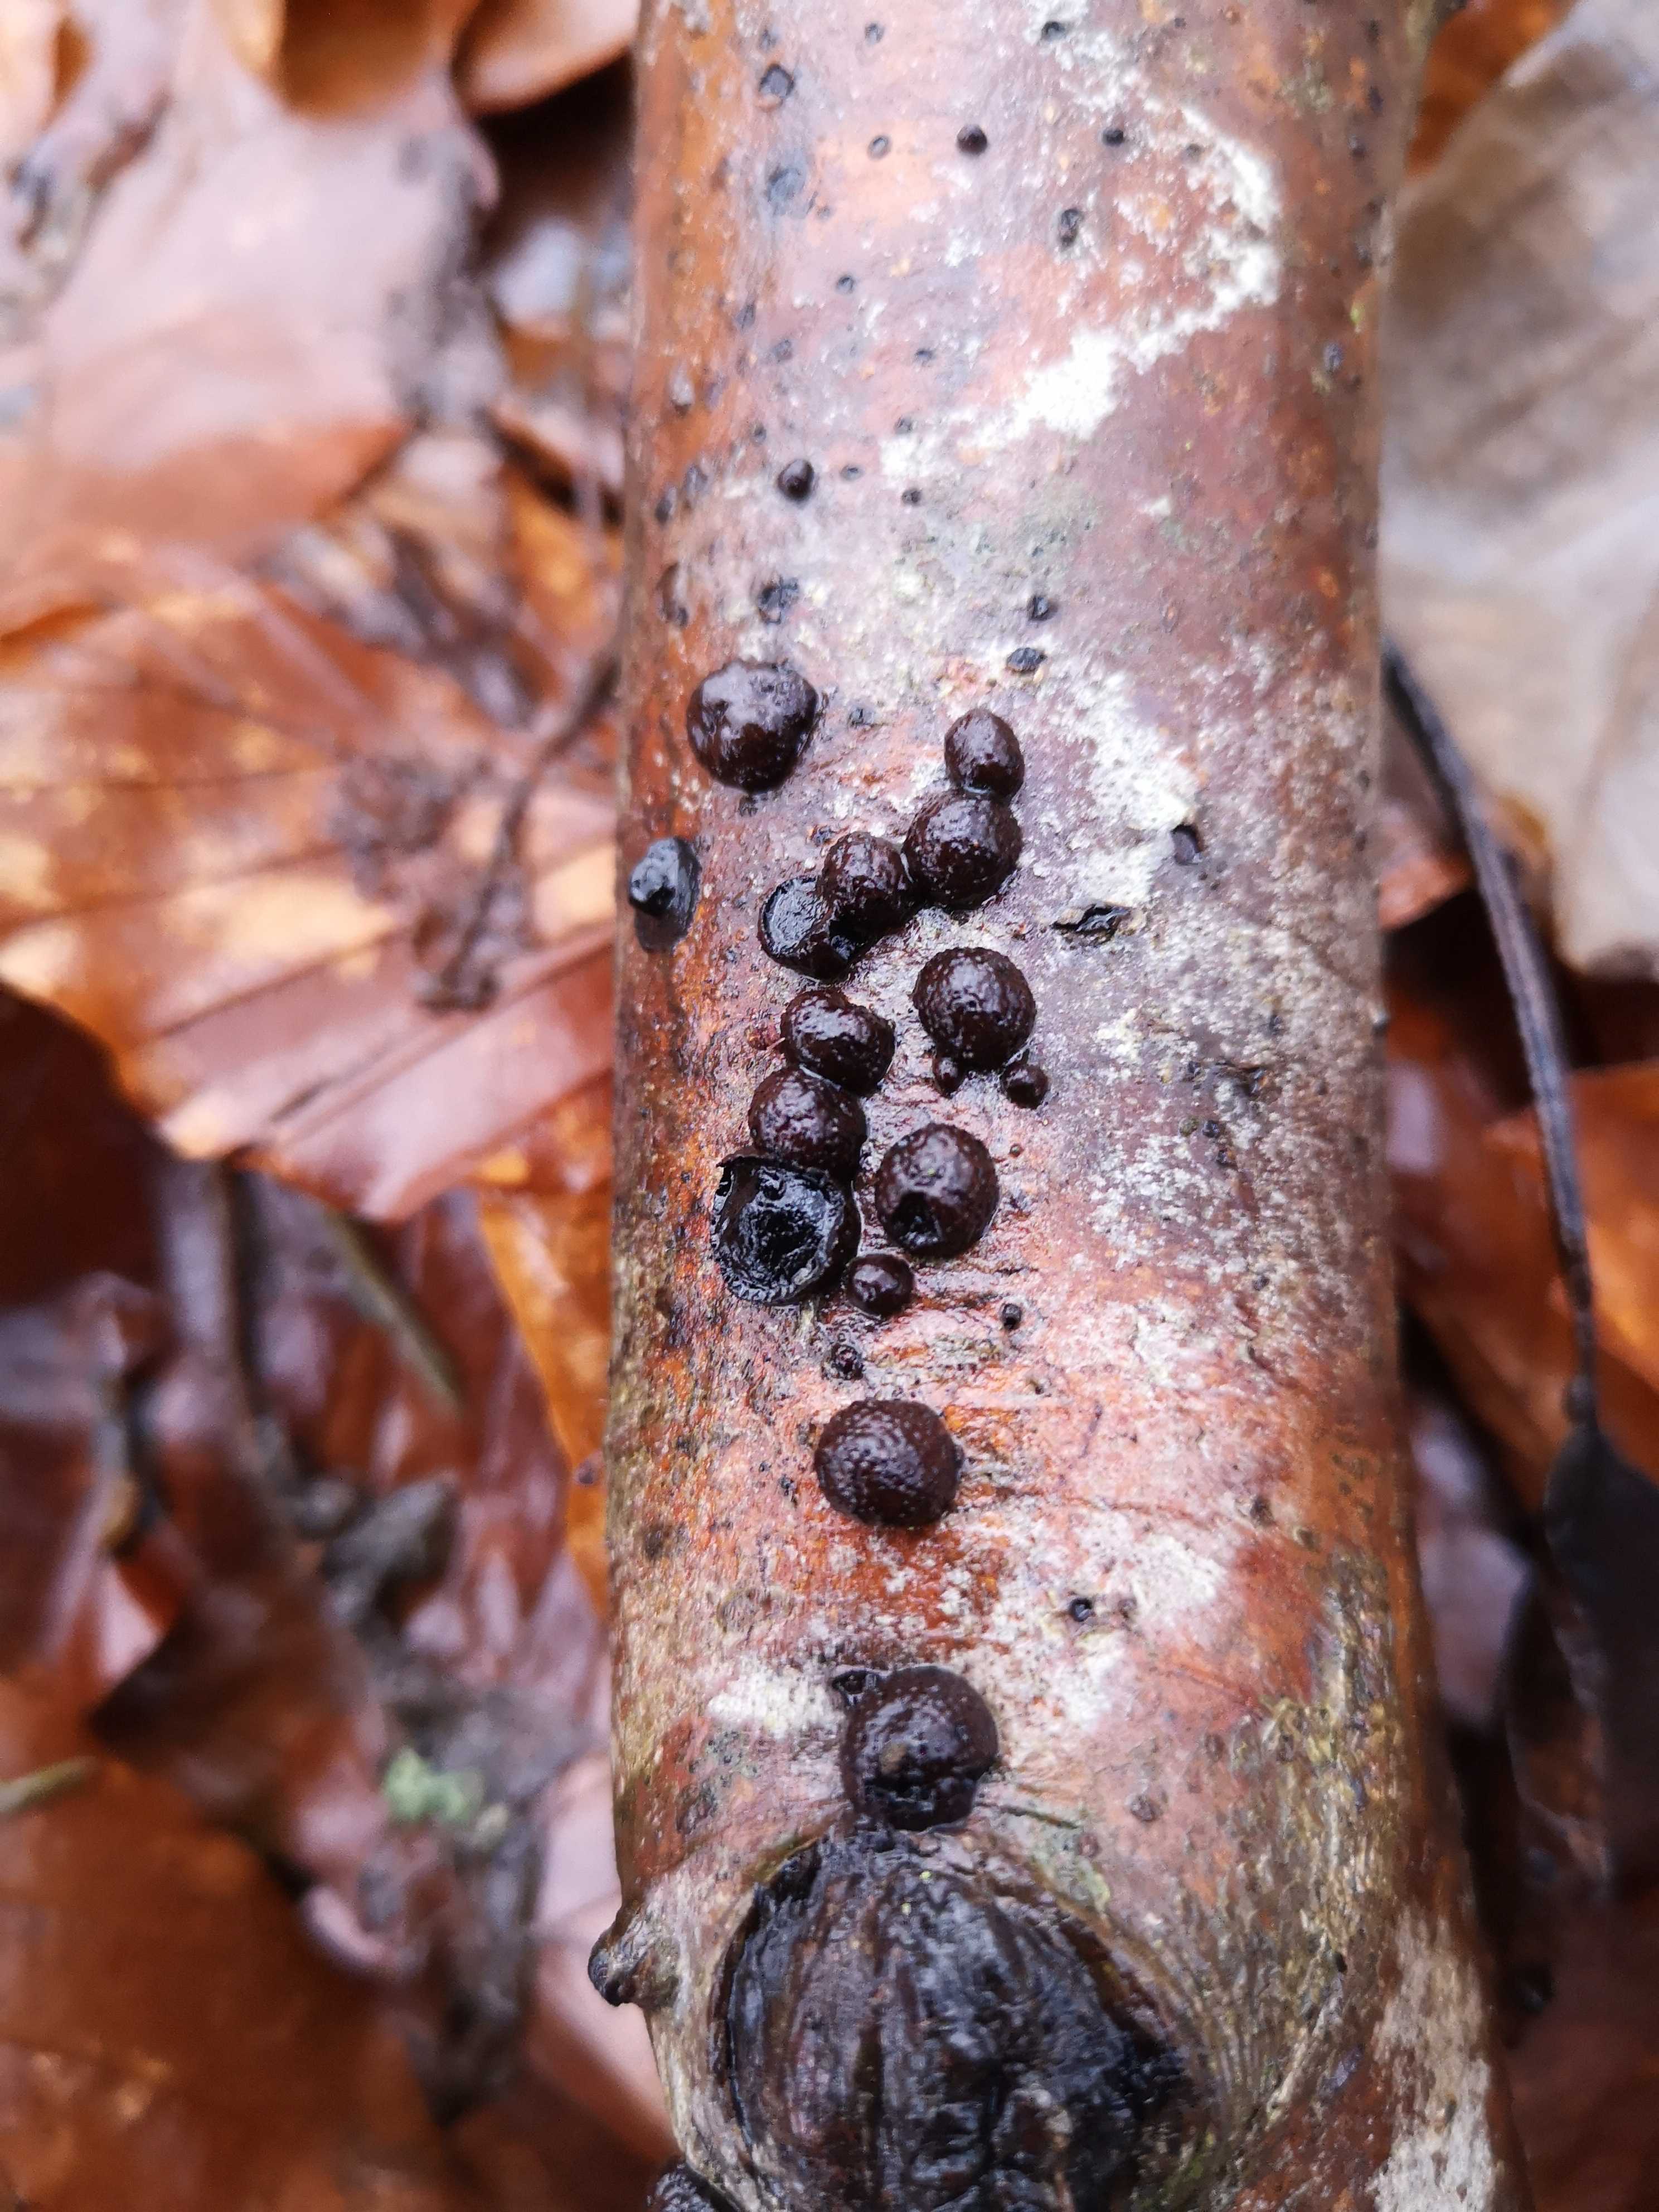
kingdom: Fungi
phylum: Ascomycota
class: Sordariomycetes
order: Xylariales
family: Hypoxylaceae
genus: Hypoxylon
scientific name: Hypoxylon fragiforme
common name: kuljordbær
